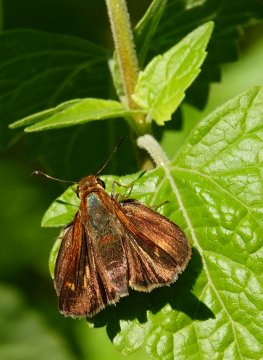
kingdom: Animalia
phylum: Arthropoda
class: Insecta
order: Lepidoptera
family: Hesperiidae
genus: Wallengrenia
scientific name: Wallengrenia otho
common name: Southern Broken-Dash
